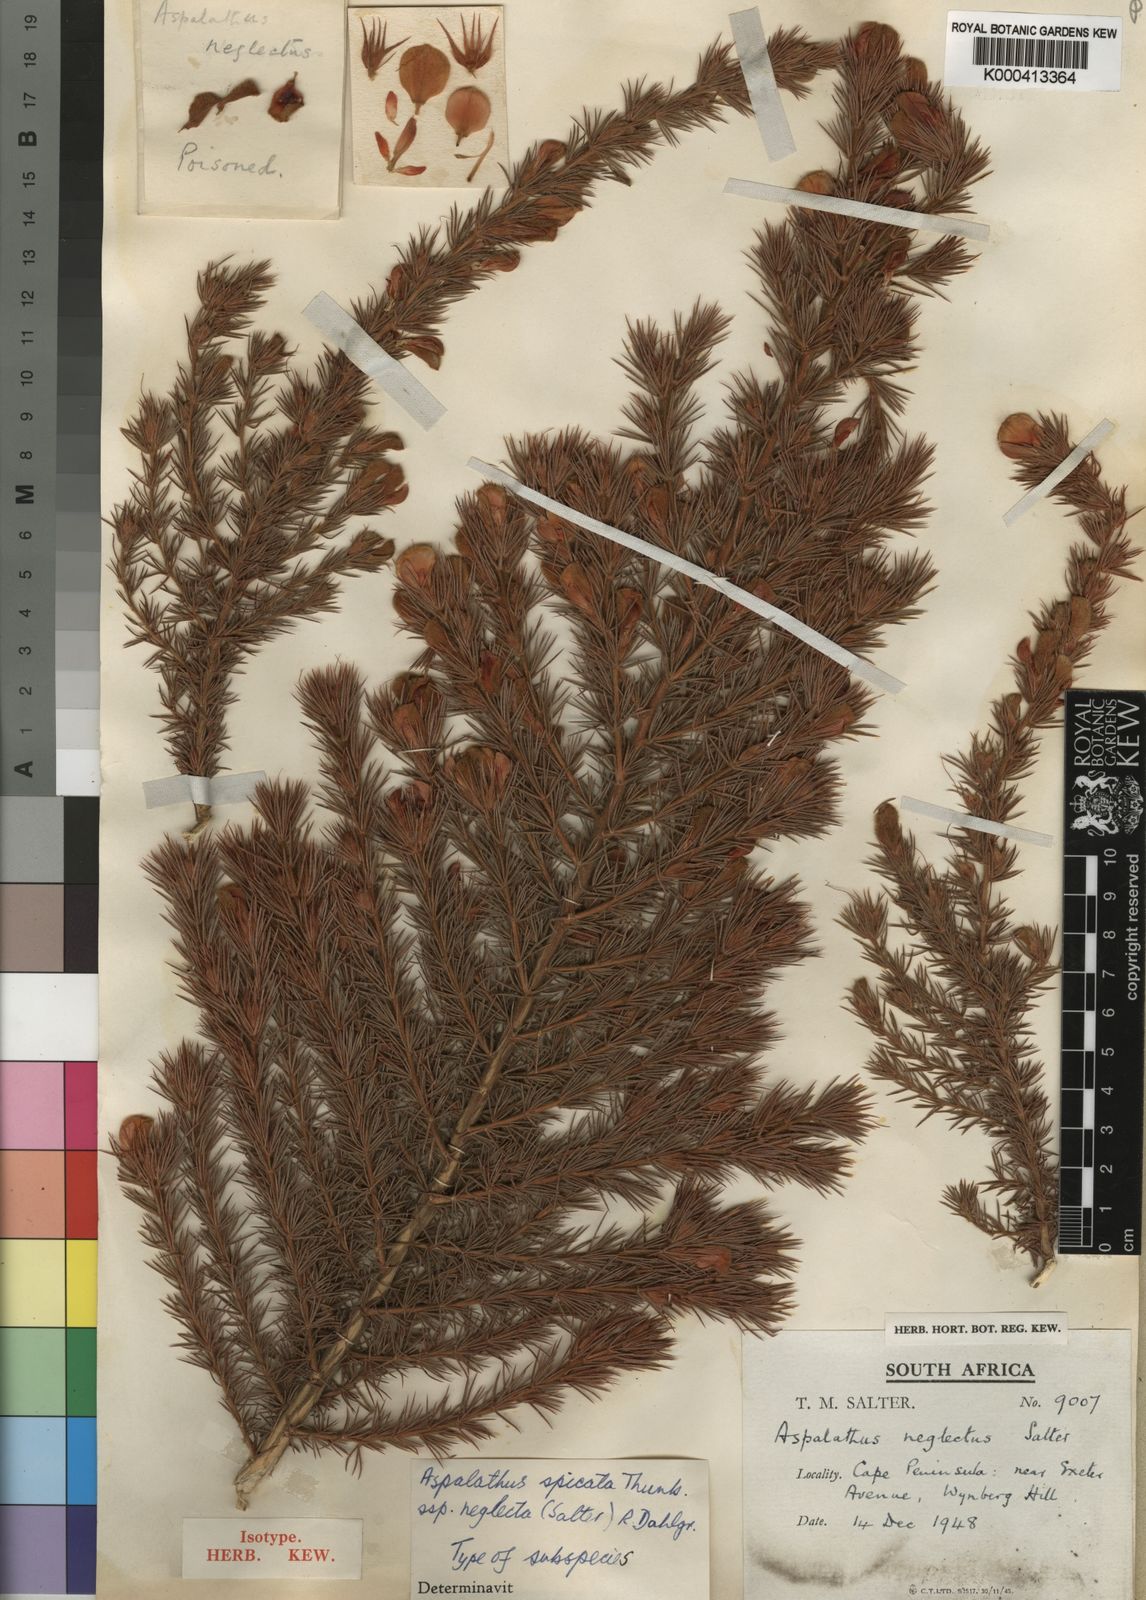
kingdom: Plantae
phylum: Tracheophyta
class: Magnoliopsida
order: Fabales
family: Fabaceae
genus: Aspalathus
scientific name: Aspalathus spicata
